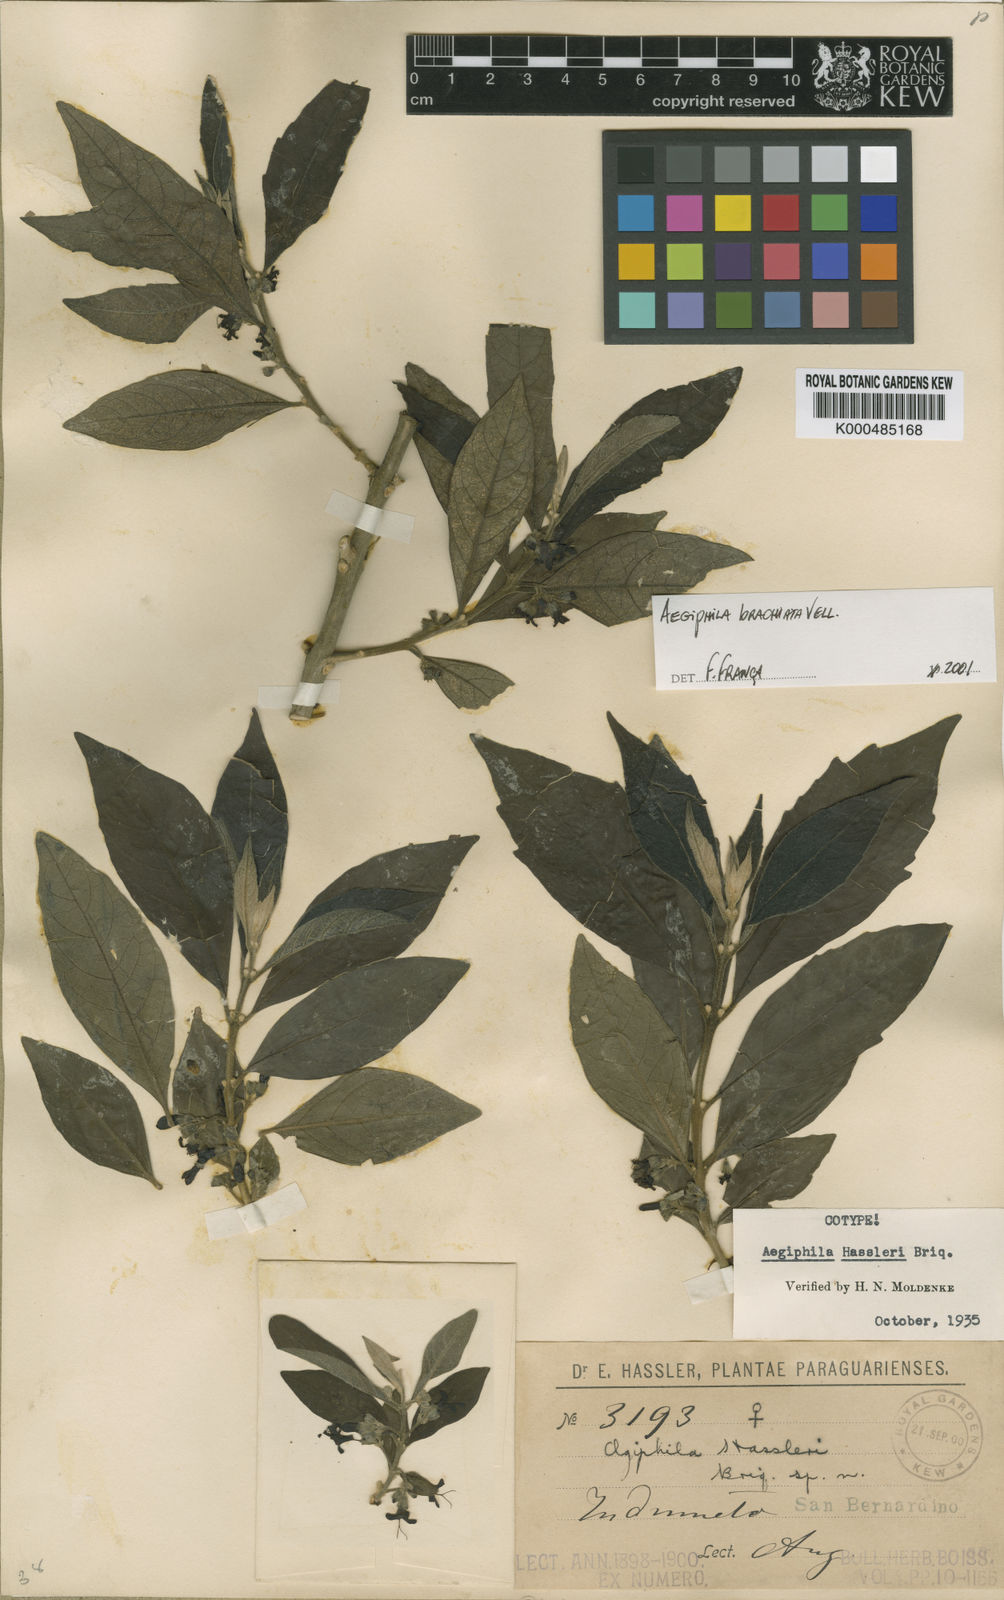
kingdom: Plantae
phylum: Tracheophyta
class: Magnoliopsida
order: Lamiales
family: Lamiaceae
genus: Aegiphila
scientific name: Aegiphila brachiata
